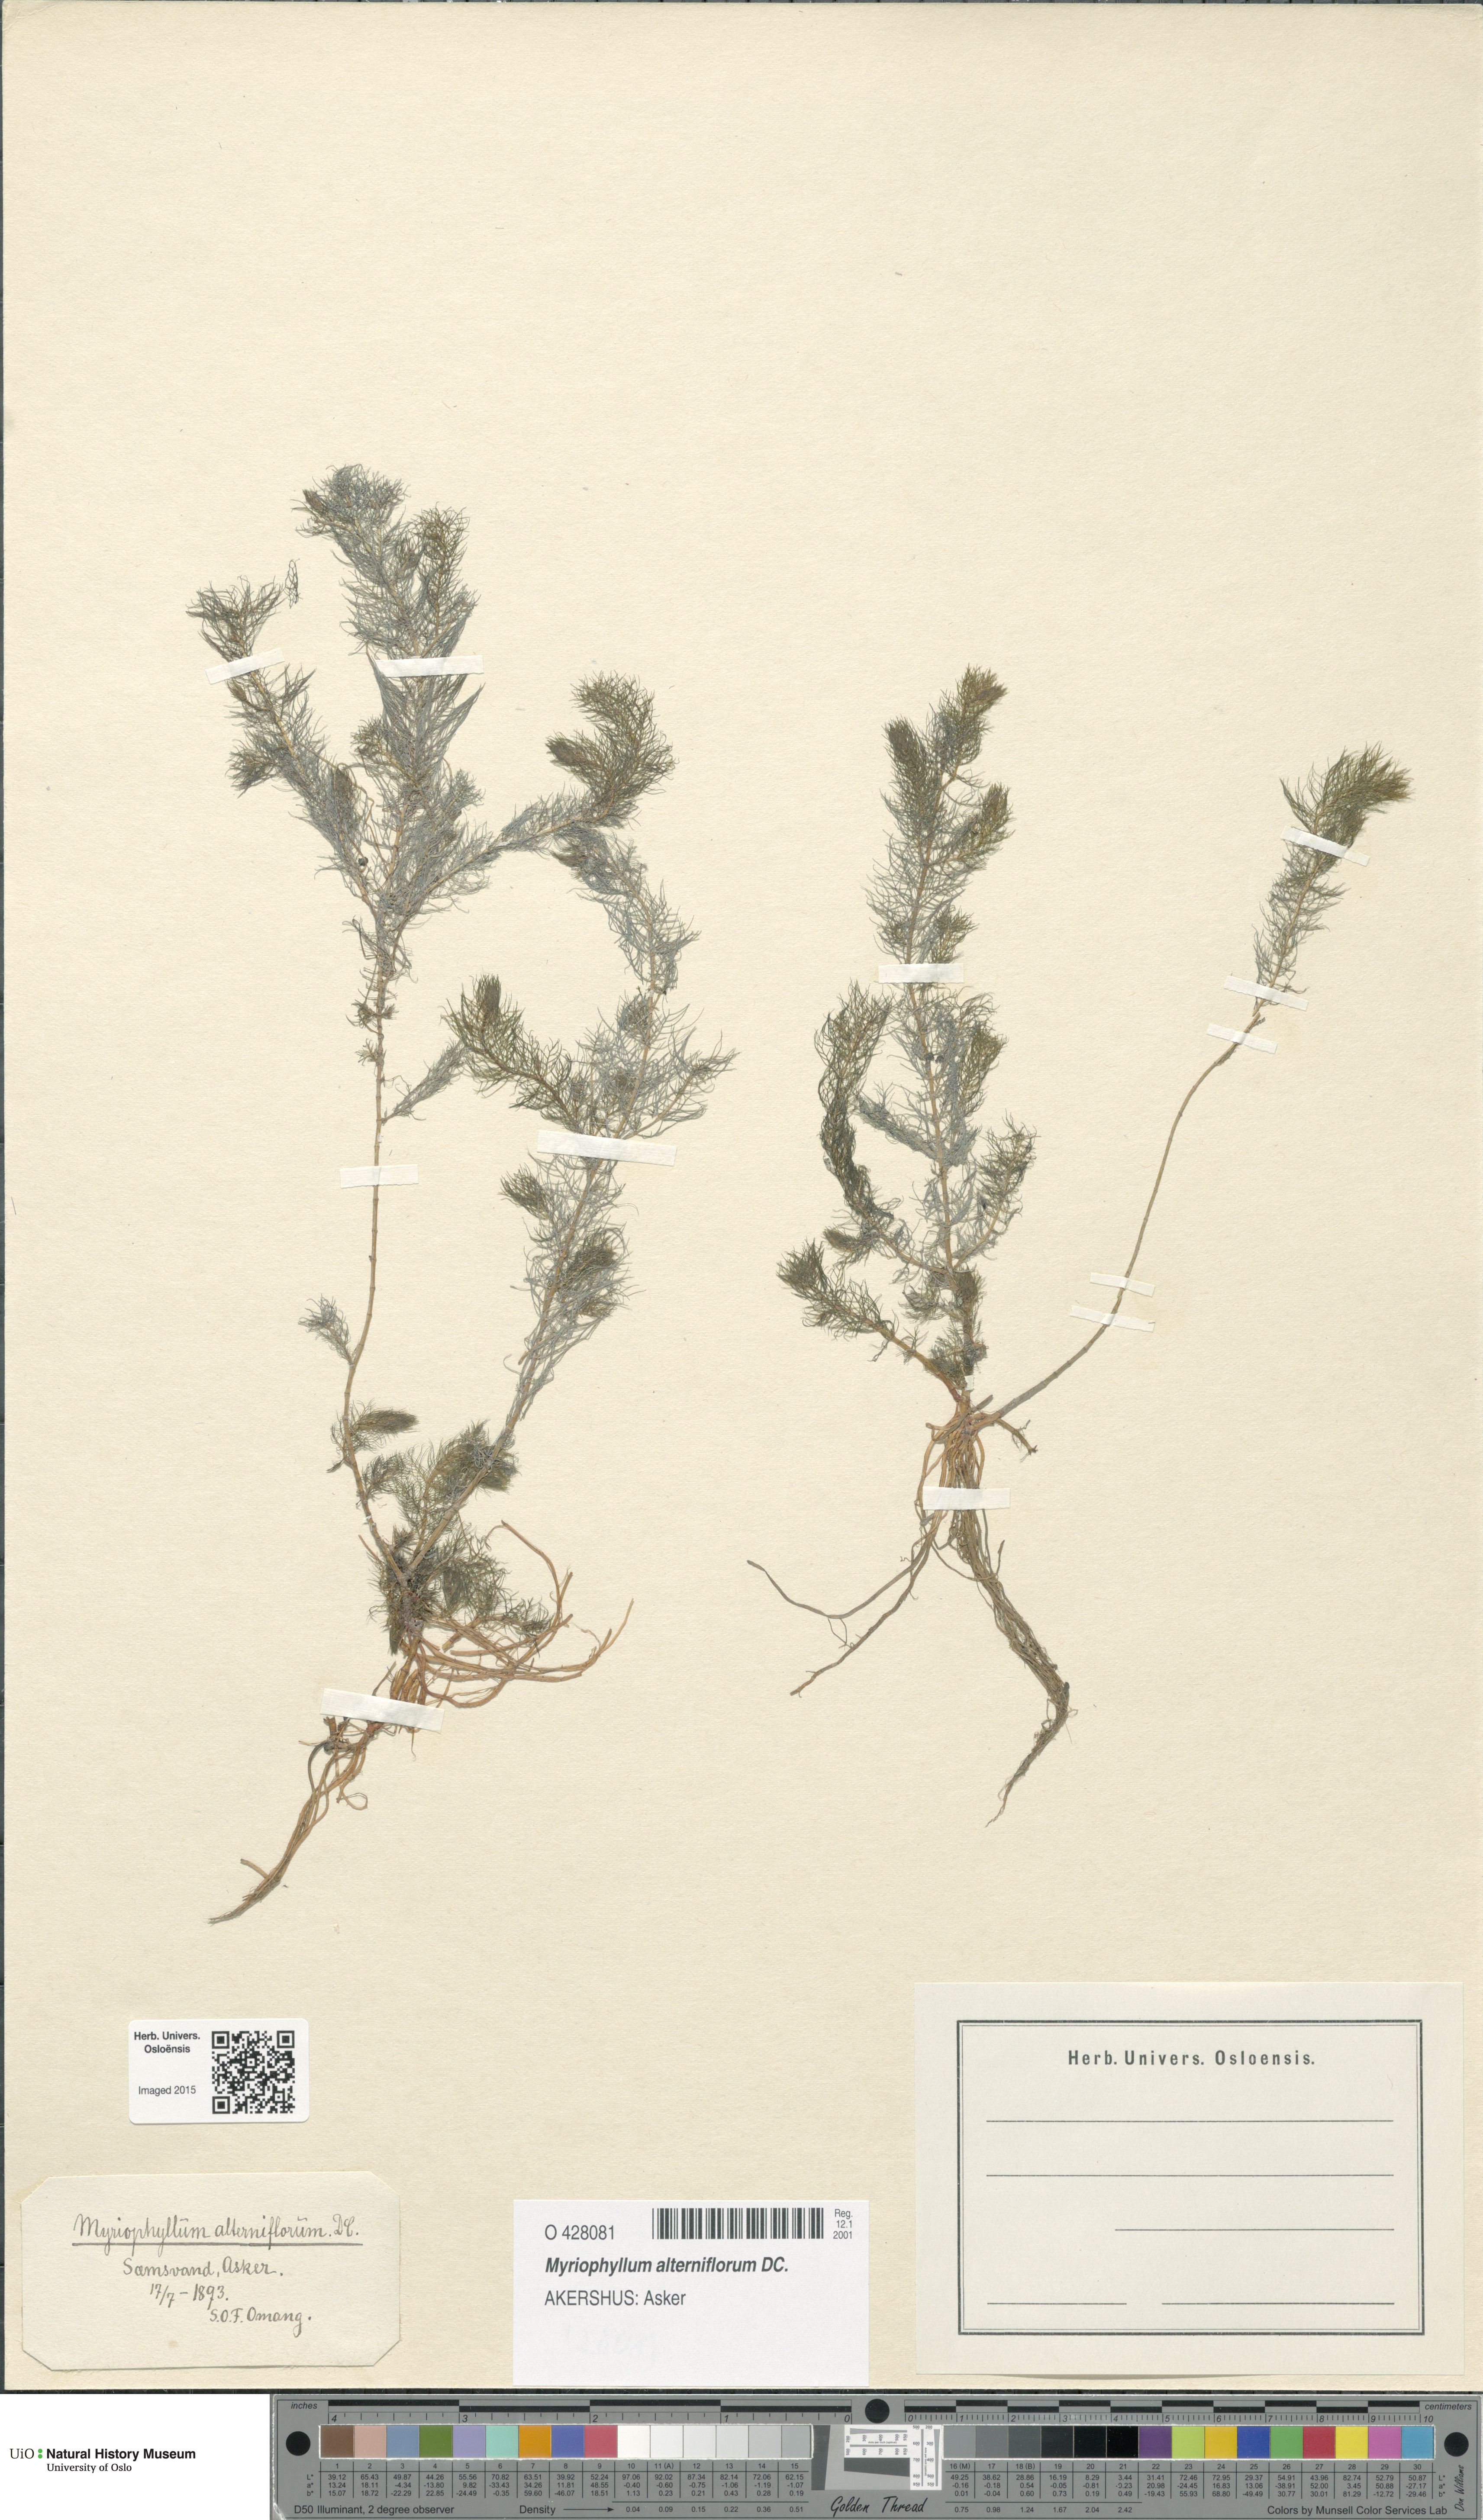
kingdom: Plantae
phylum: Tracheophyta
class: Magnoliopsida
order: Saxifragales
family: Haloragaceae
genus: Myriophyllum
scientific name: Myriophyllum alterniflorum
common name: Alternate water-milfoil
